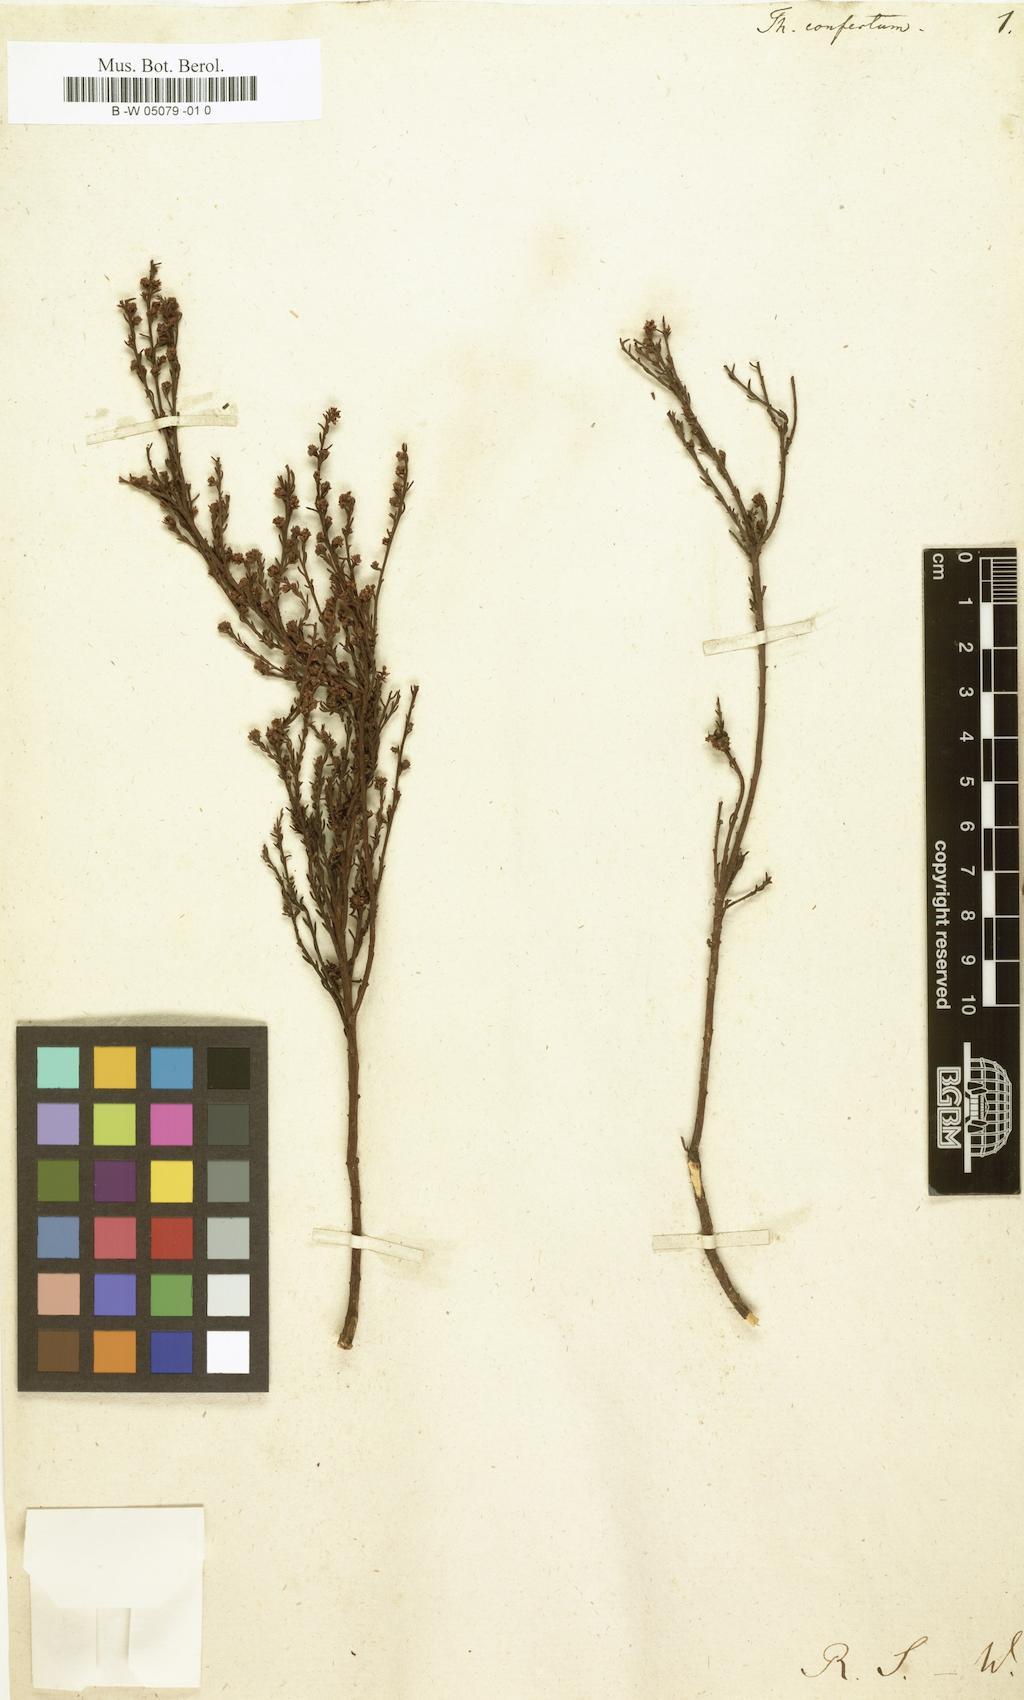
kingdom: Plantae
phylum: Tracheophyta
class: Magnoliopsida
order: Santalales
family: Thesiaceae
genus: Thesium
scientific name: Thesium ericiifolium
